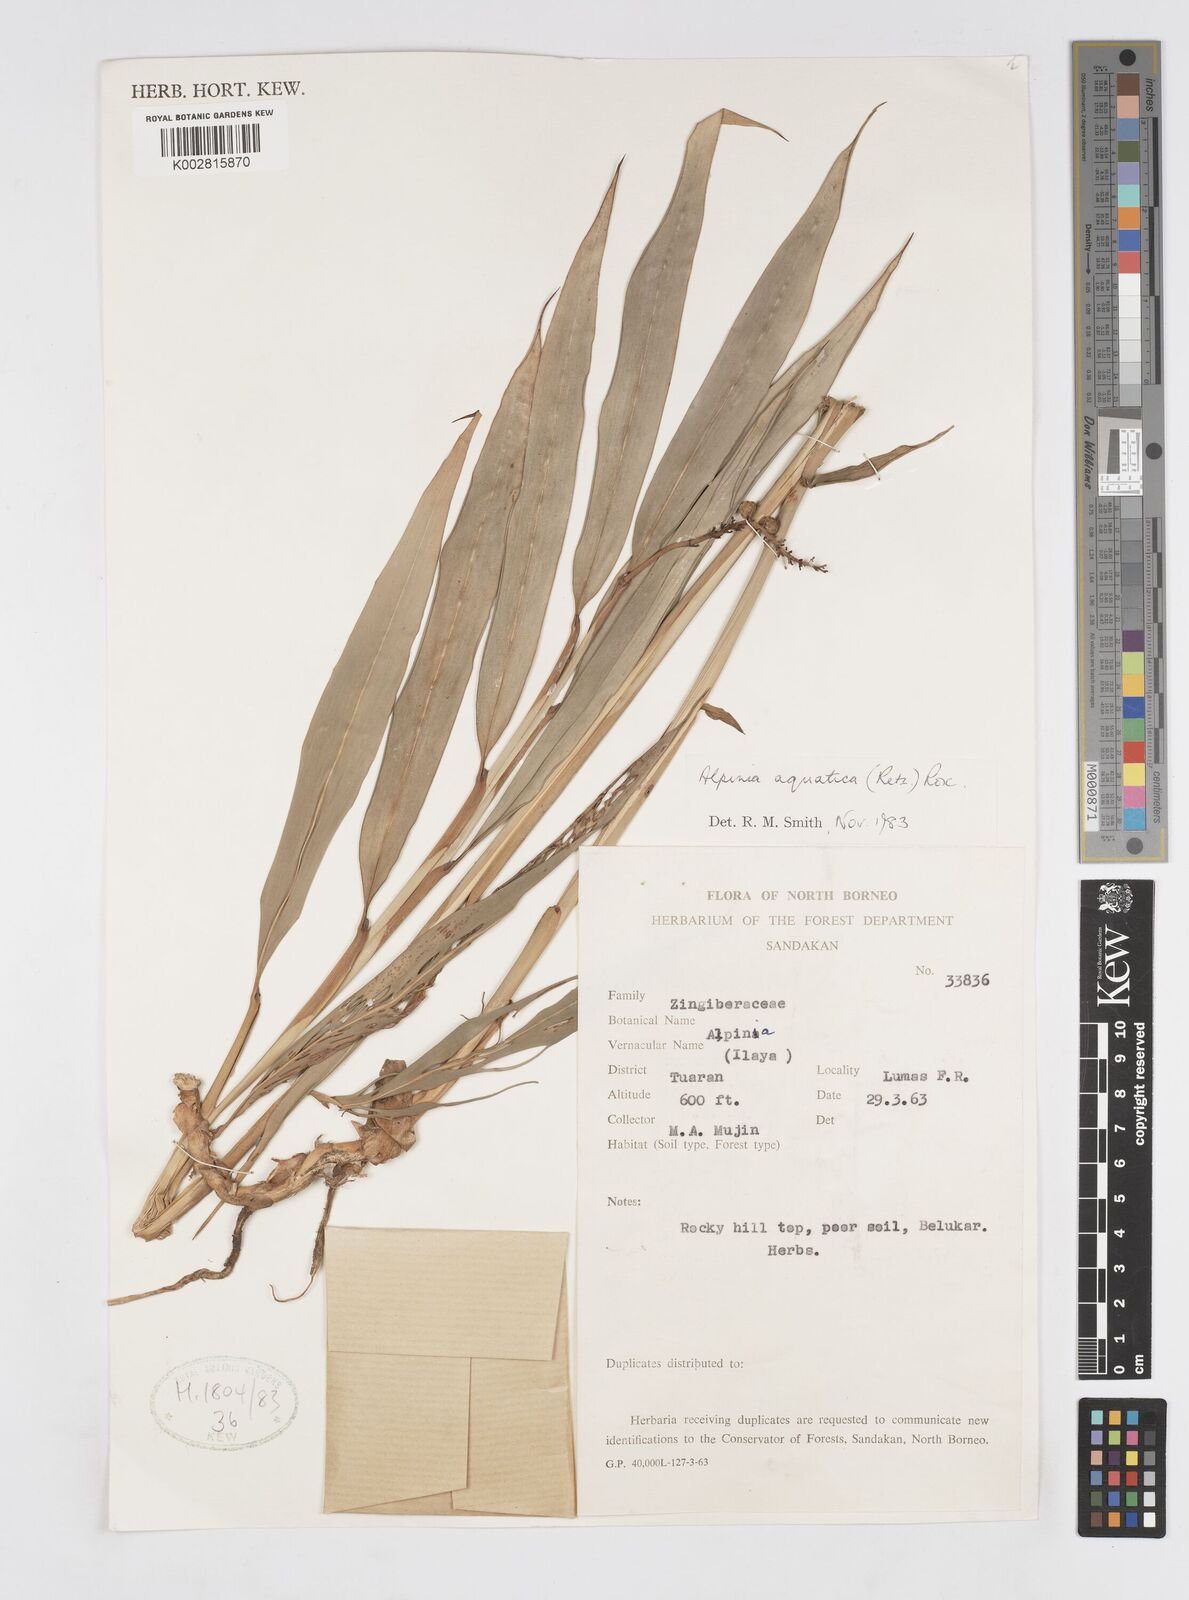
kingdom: Plantae
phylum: Tracheophyta
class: Liliopsida
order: Zingiberales
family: Zingiberaceae
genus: Alpinia
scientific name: Alpinia aquatica
